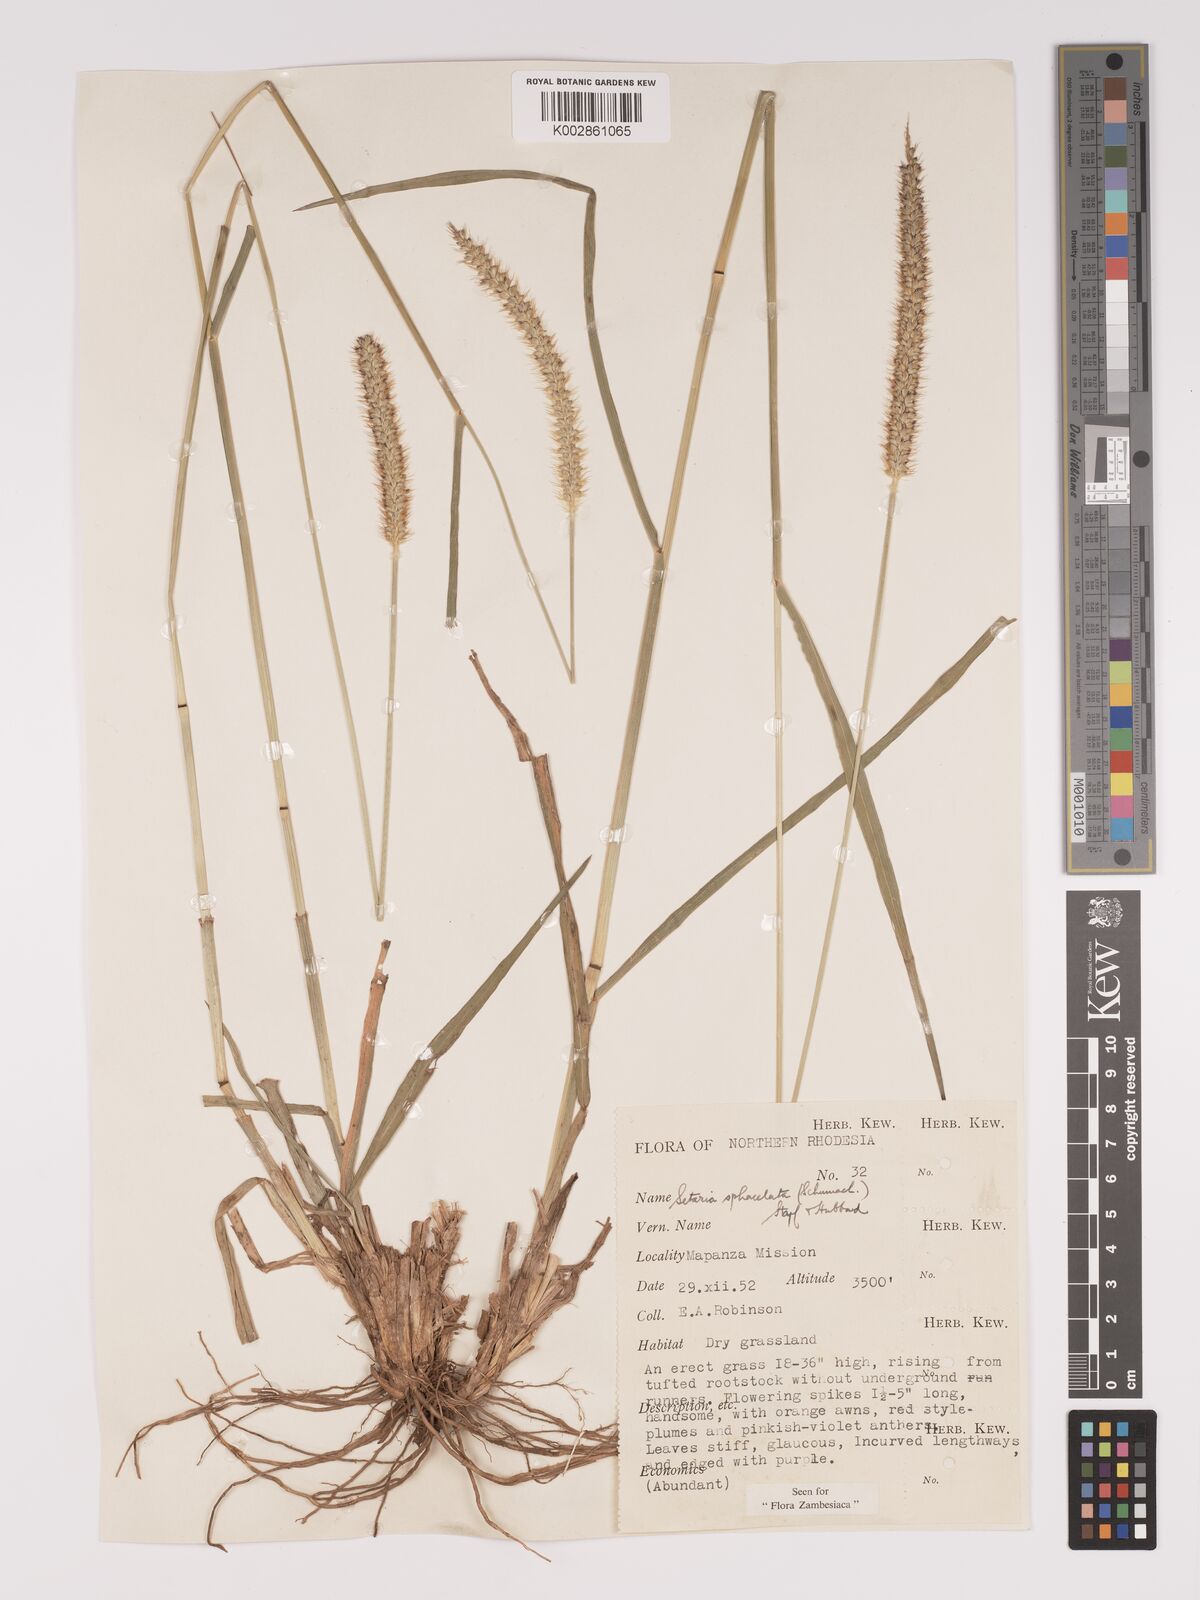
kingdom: Plantae
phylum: Tracheophyta
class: Liliopsida
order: Poales
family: Poaceae
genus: Setaria
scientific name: Setaria sphacelata
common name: African bristlegrass
